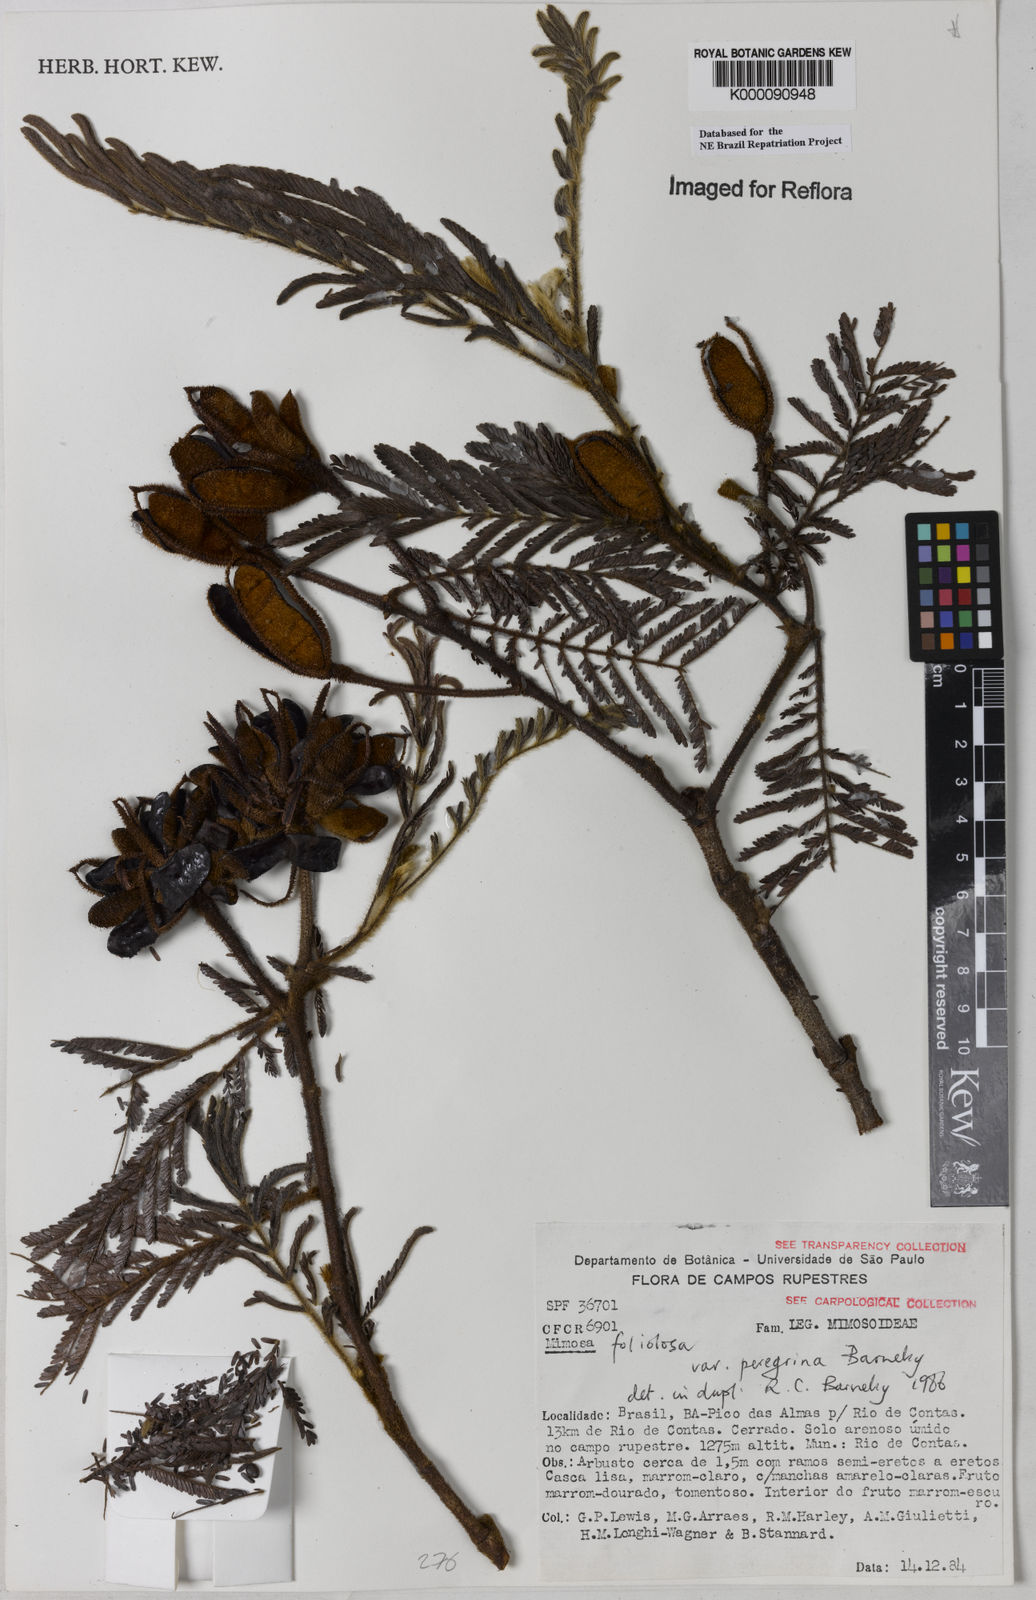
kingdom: Plantae
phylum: Tracheophyta
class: Magnoliopsida
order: Fabales
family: Fabaceae
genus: Mimosa
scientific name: Mimosa foliolosa
